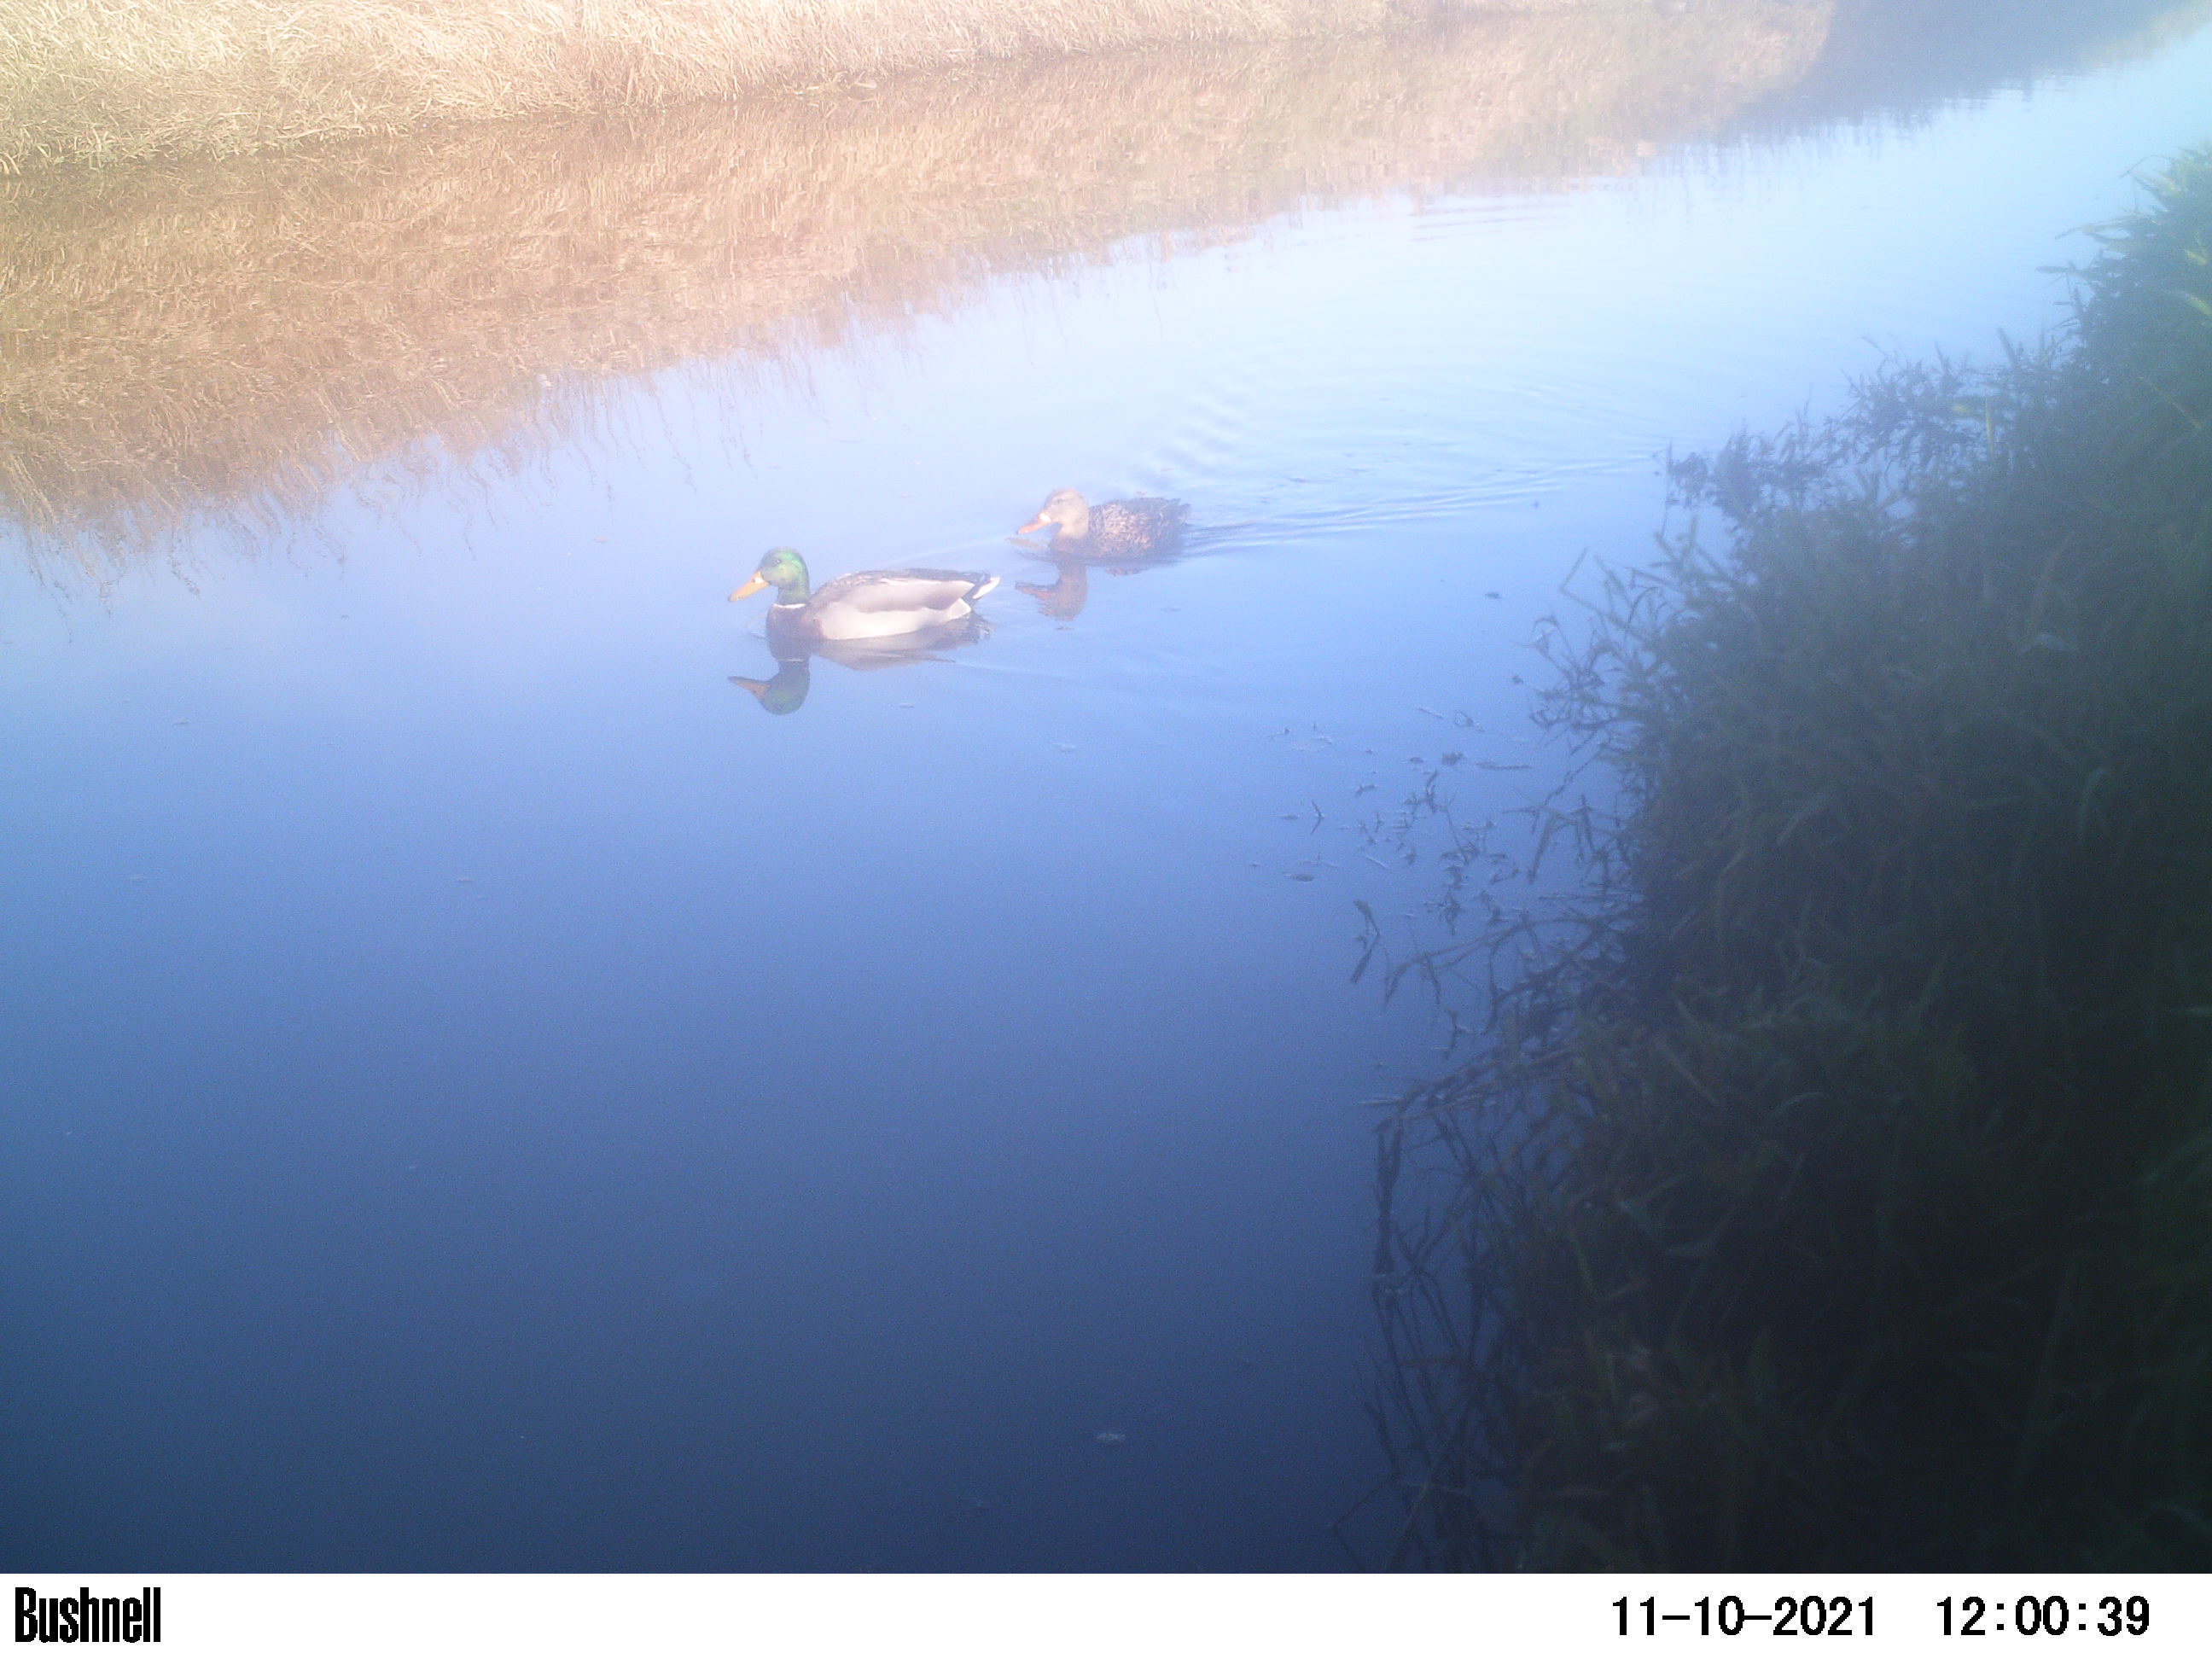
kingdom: Animalia
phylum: Chordata
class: Aves
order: Anseriformes
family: Anatidae
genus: Anas
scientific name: Anas
